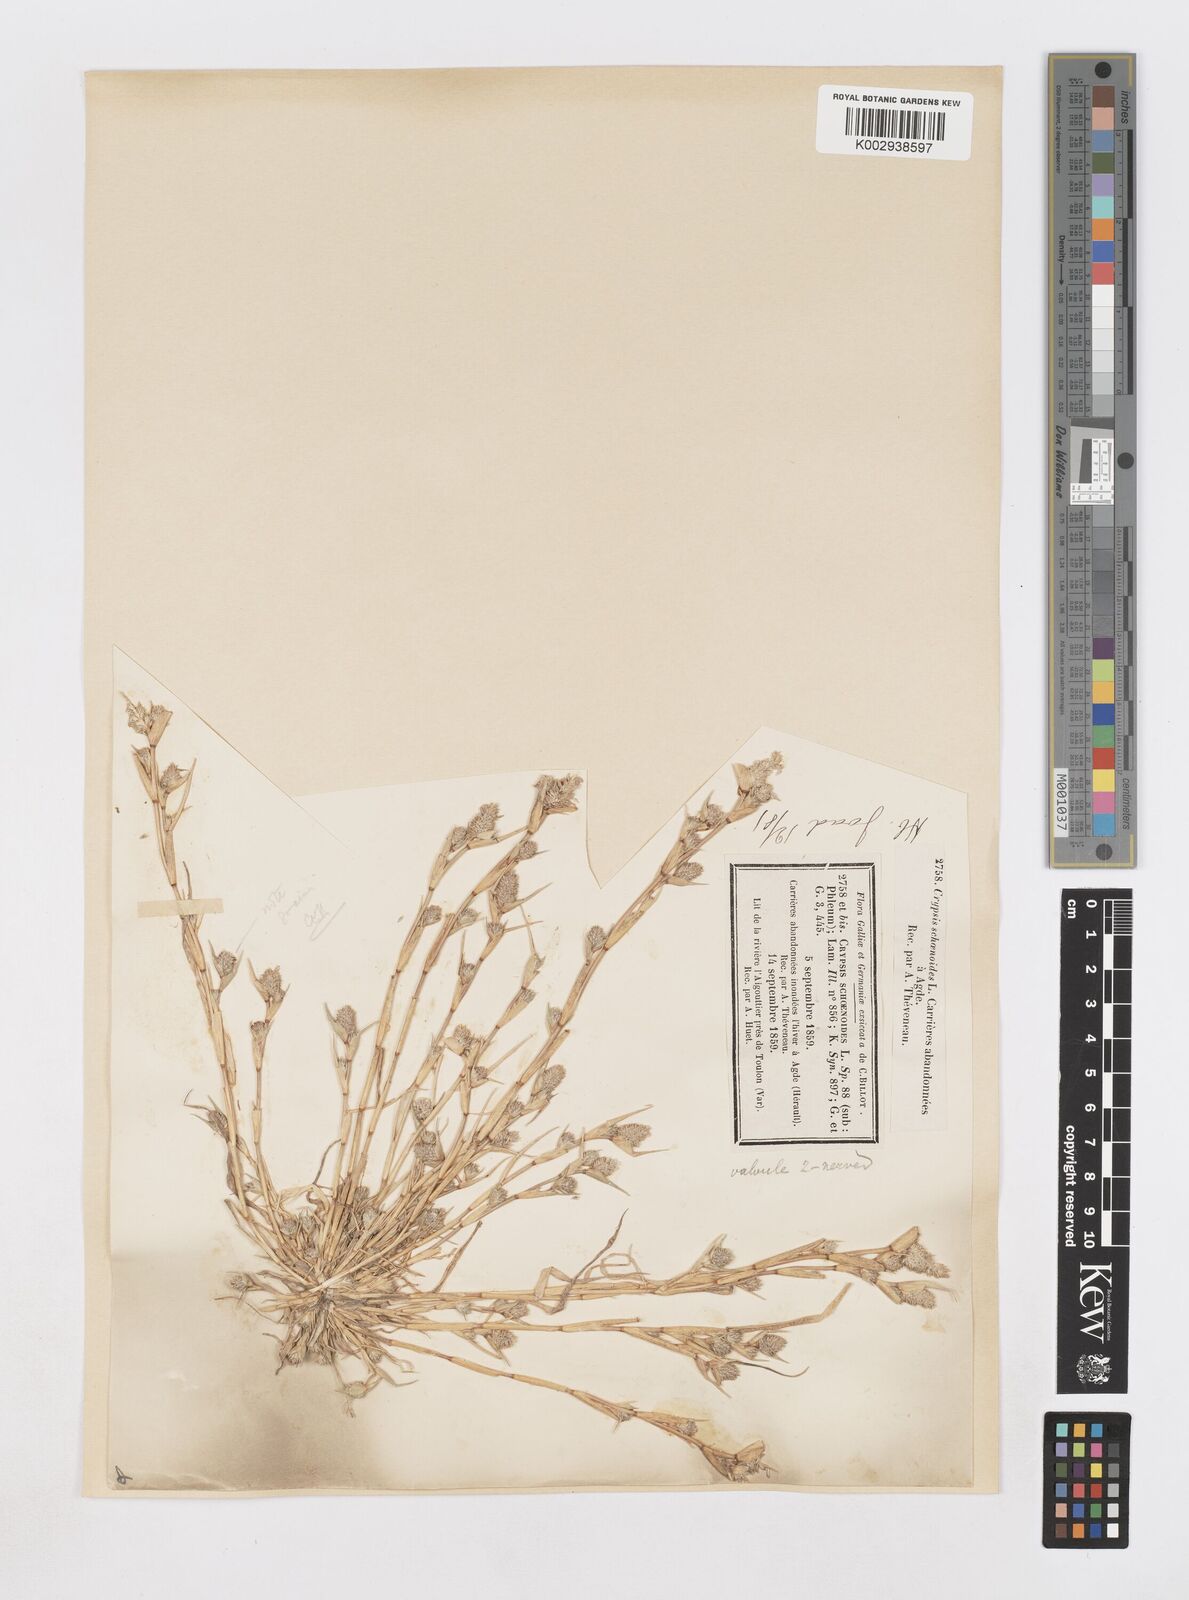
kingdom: Plantae
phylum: Tracheophyta
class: Liliopsida
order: Poales
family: Poaceae
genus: Sporobolus
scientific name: Sporobolus schoenoides
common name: Rush-like timothy
